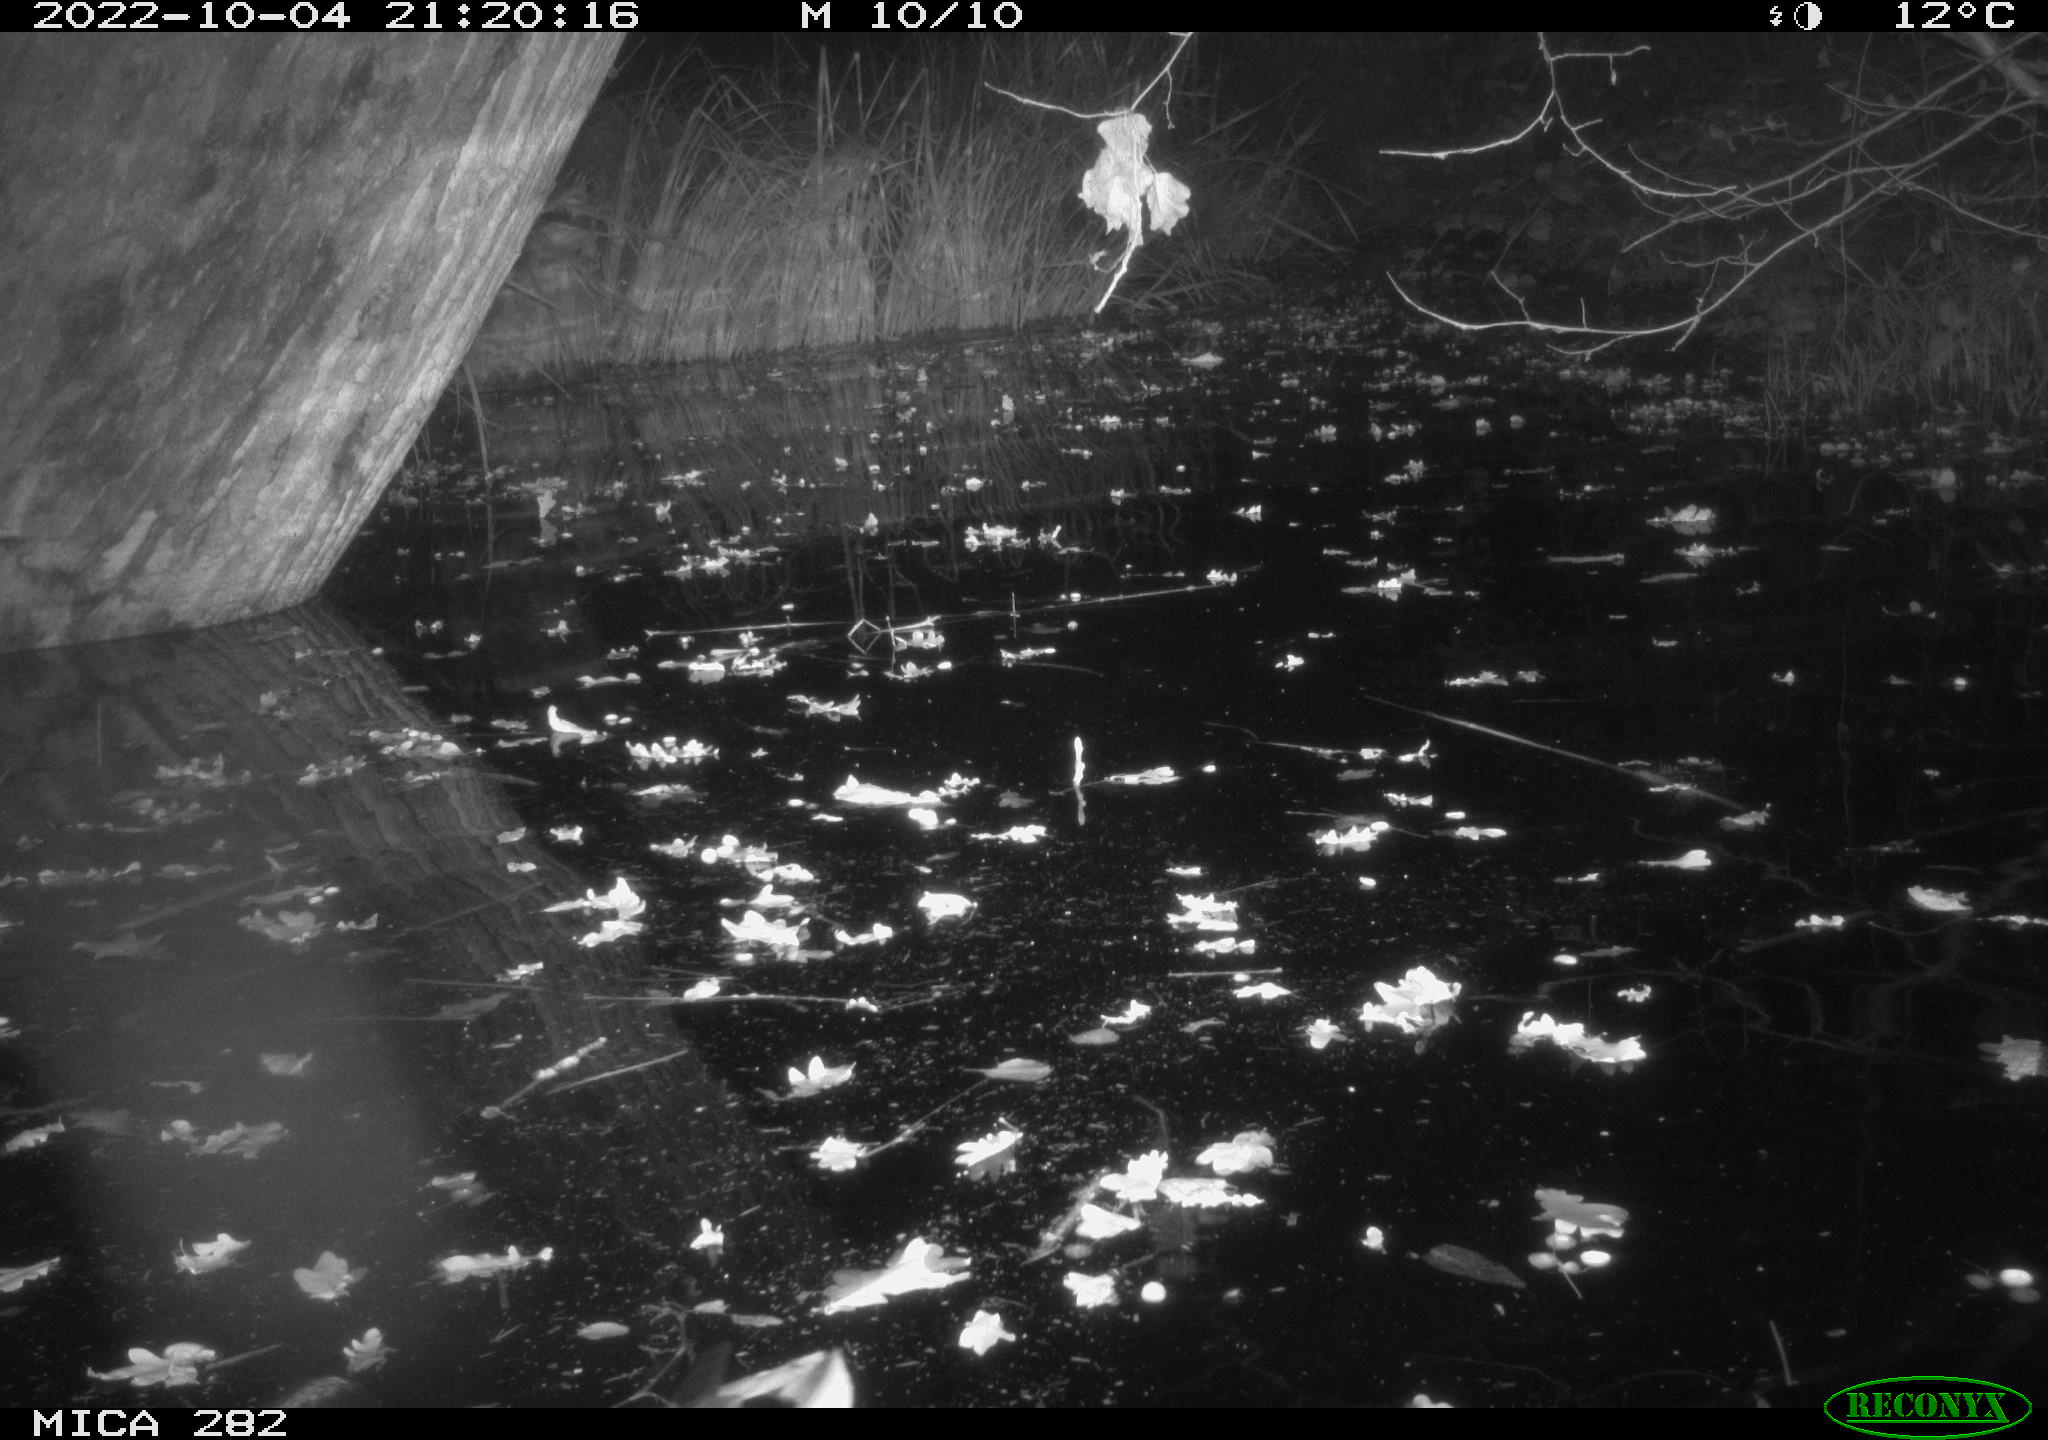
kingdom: Animalia
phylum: Chordata
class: Aves
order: Gruiformes
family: Rallidae
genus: Fulica
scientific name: Fulica atra
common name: Eurasian coot
